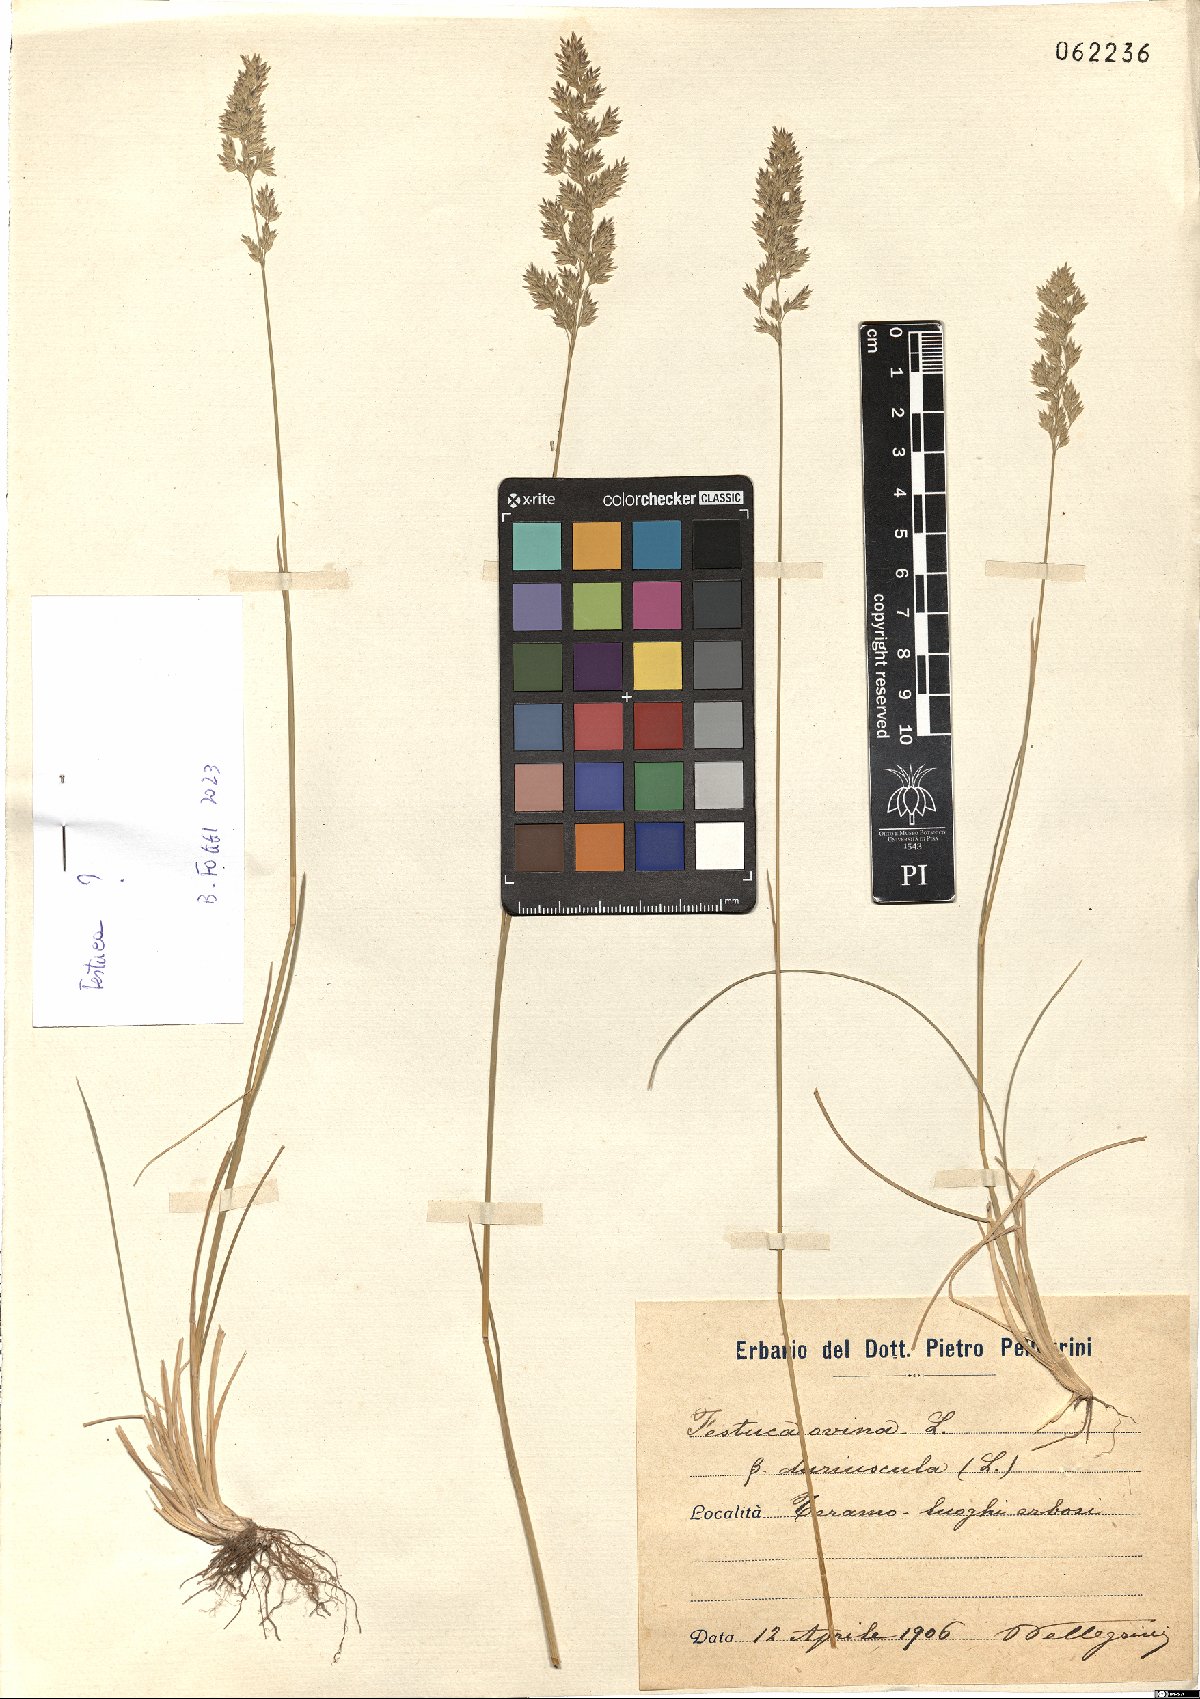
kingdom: Plantae
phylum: Tracheophyta
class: Liliopsida
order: Poales
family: Poaceae
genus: Festuca
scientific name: Festuca rubra
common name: Red fescue
